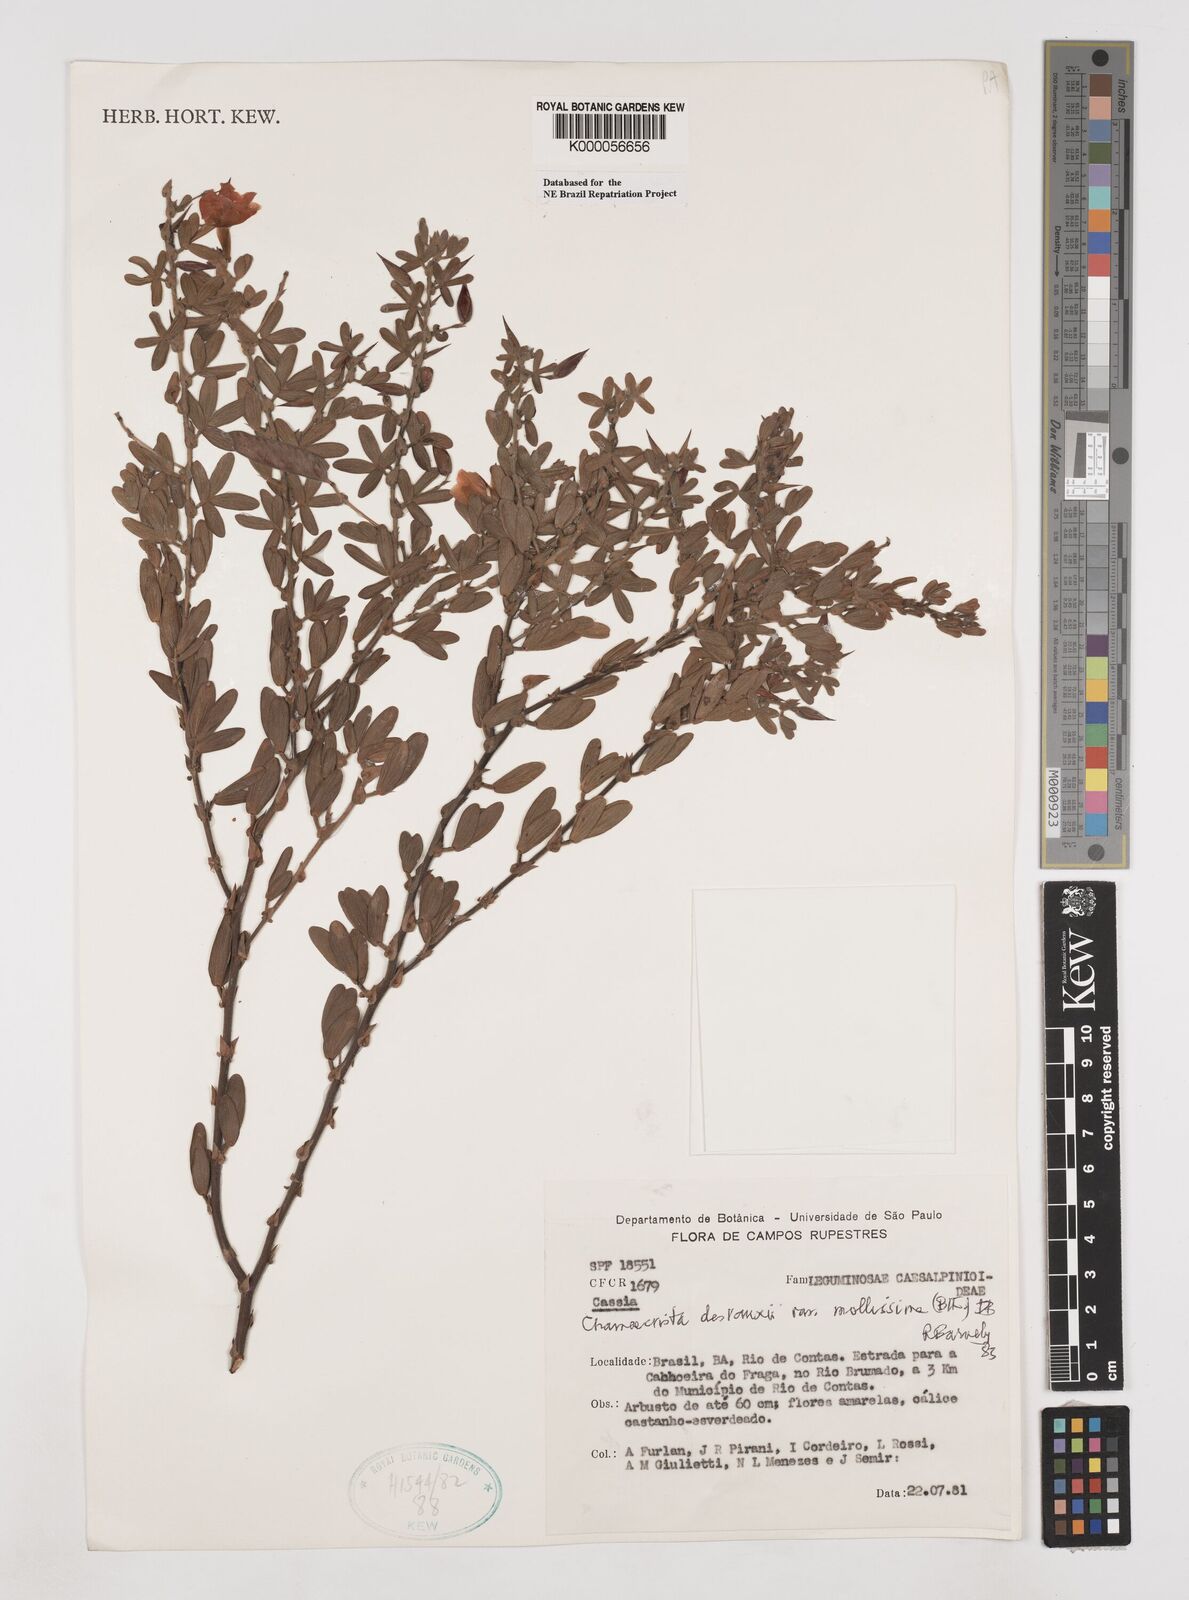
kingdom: Plantae
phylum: Tracheophyta
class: Magnoliopsida
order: Fabales
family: Fabaceae
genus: Chamaecrista
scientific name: Chamaecrista desvauxii
